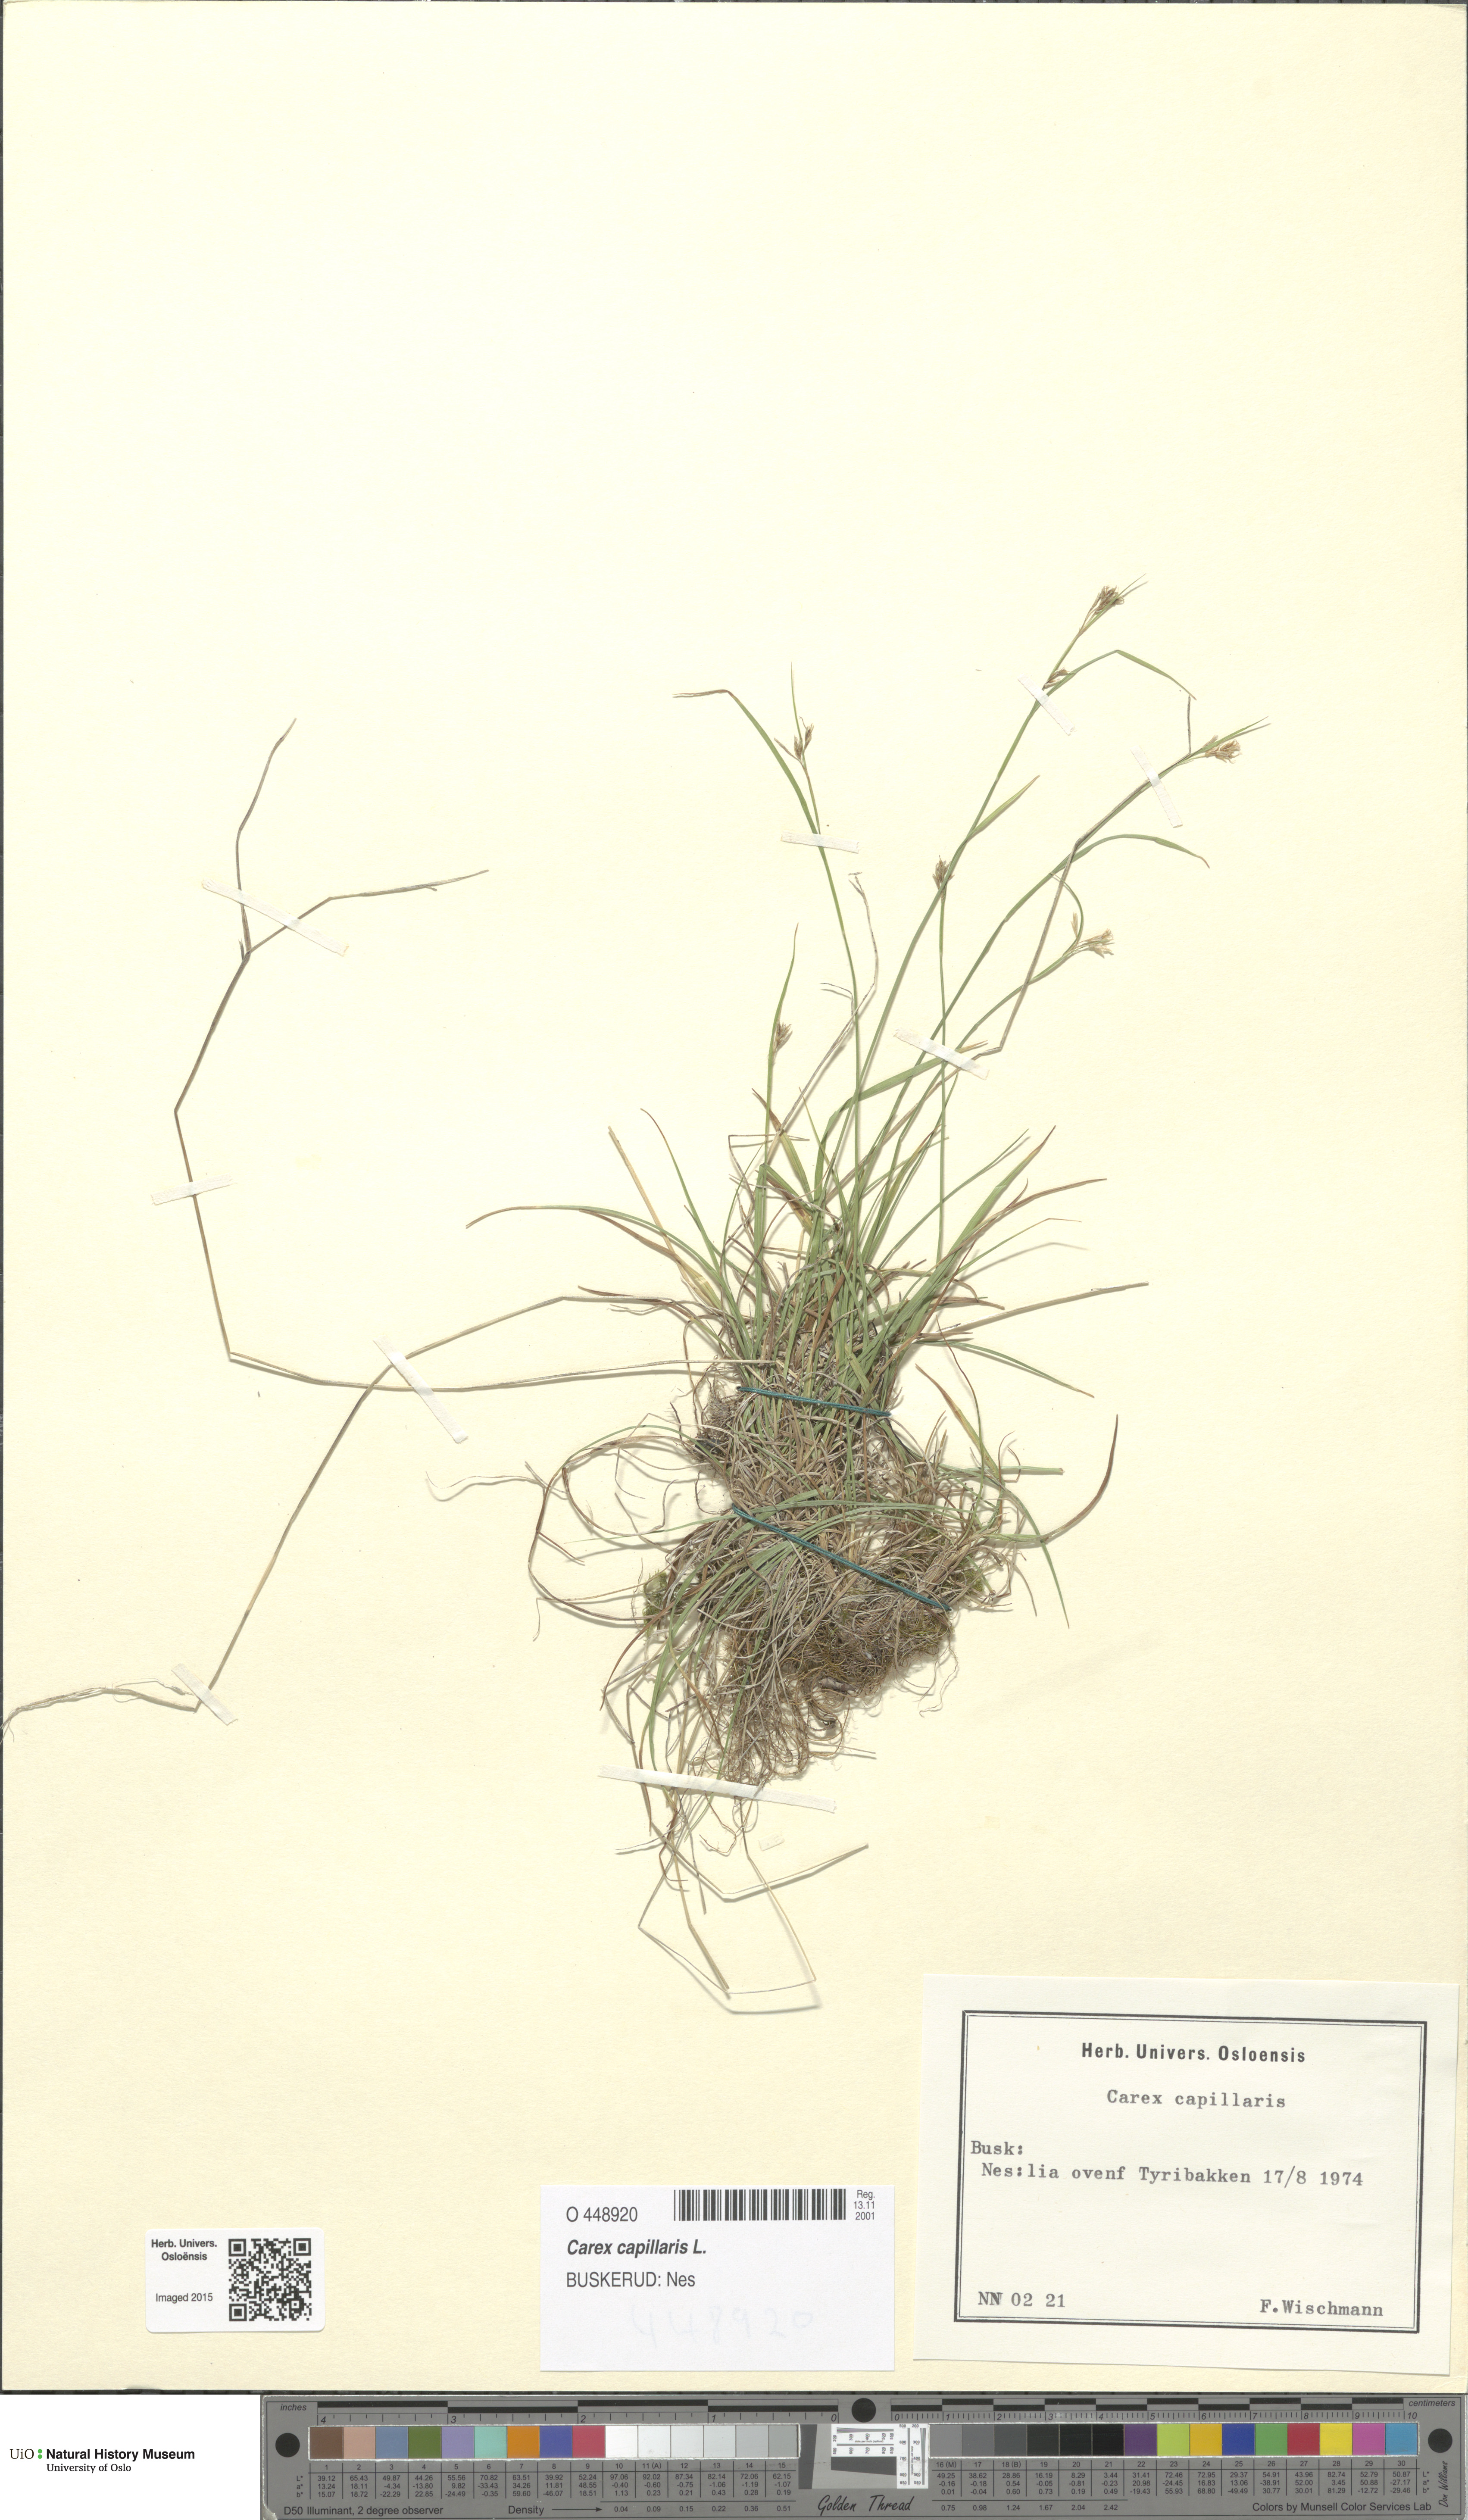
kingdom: Plantae
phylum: Tracheophyta
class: Liliopsida
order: Poales
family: Cyperaceae
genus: Carex
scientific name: Carex capillaris
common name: Hair sedge
